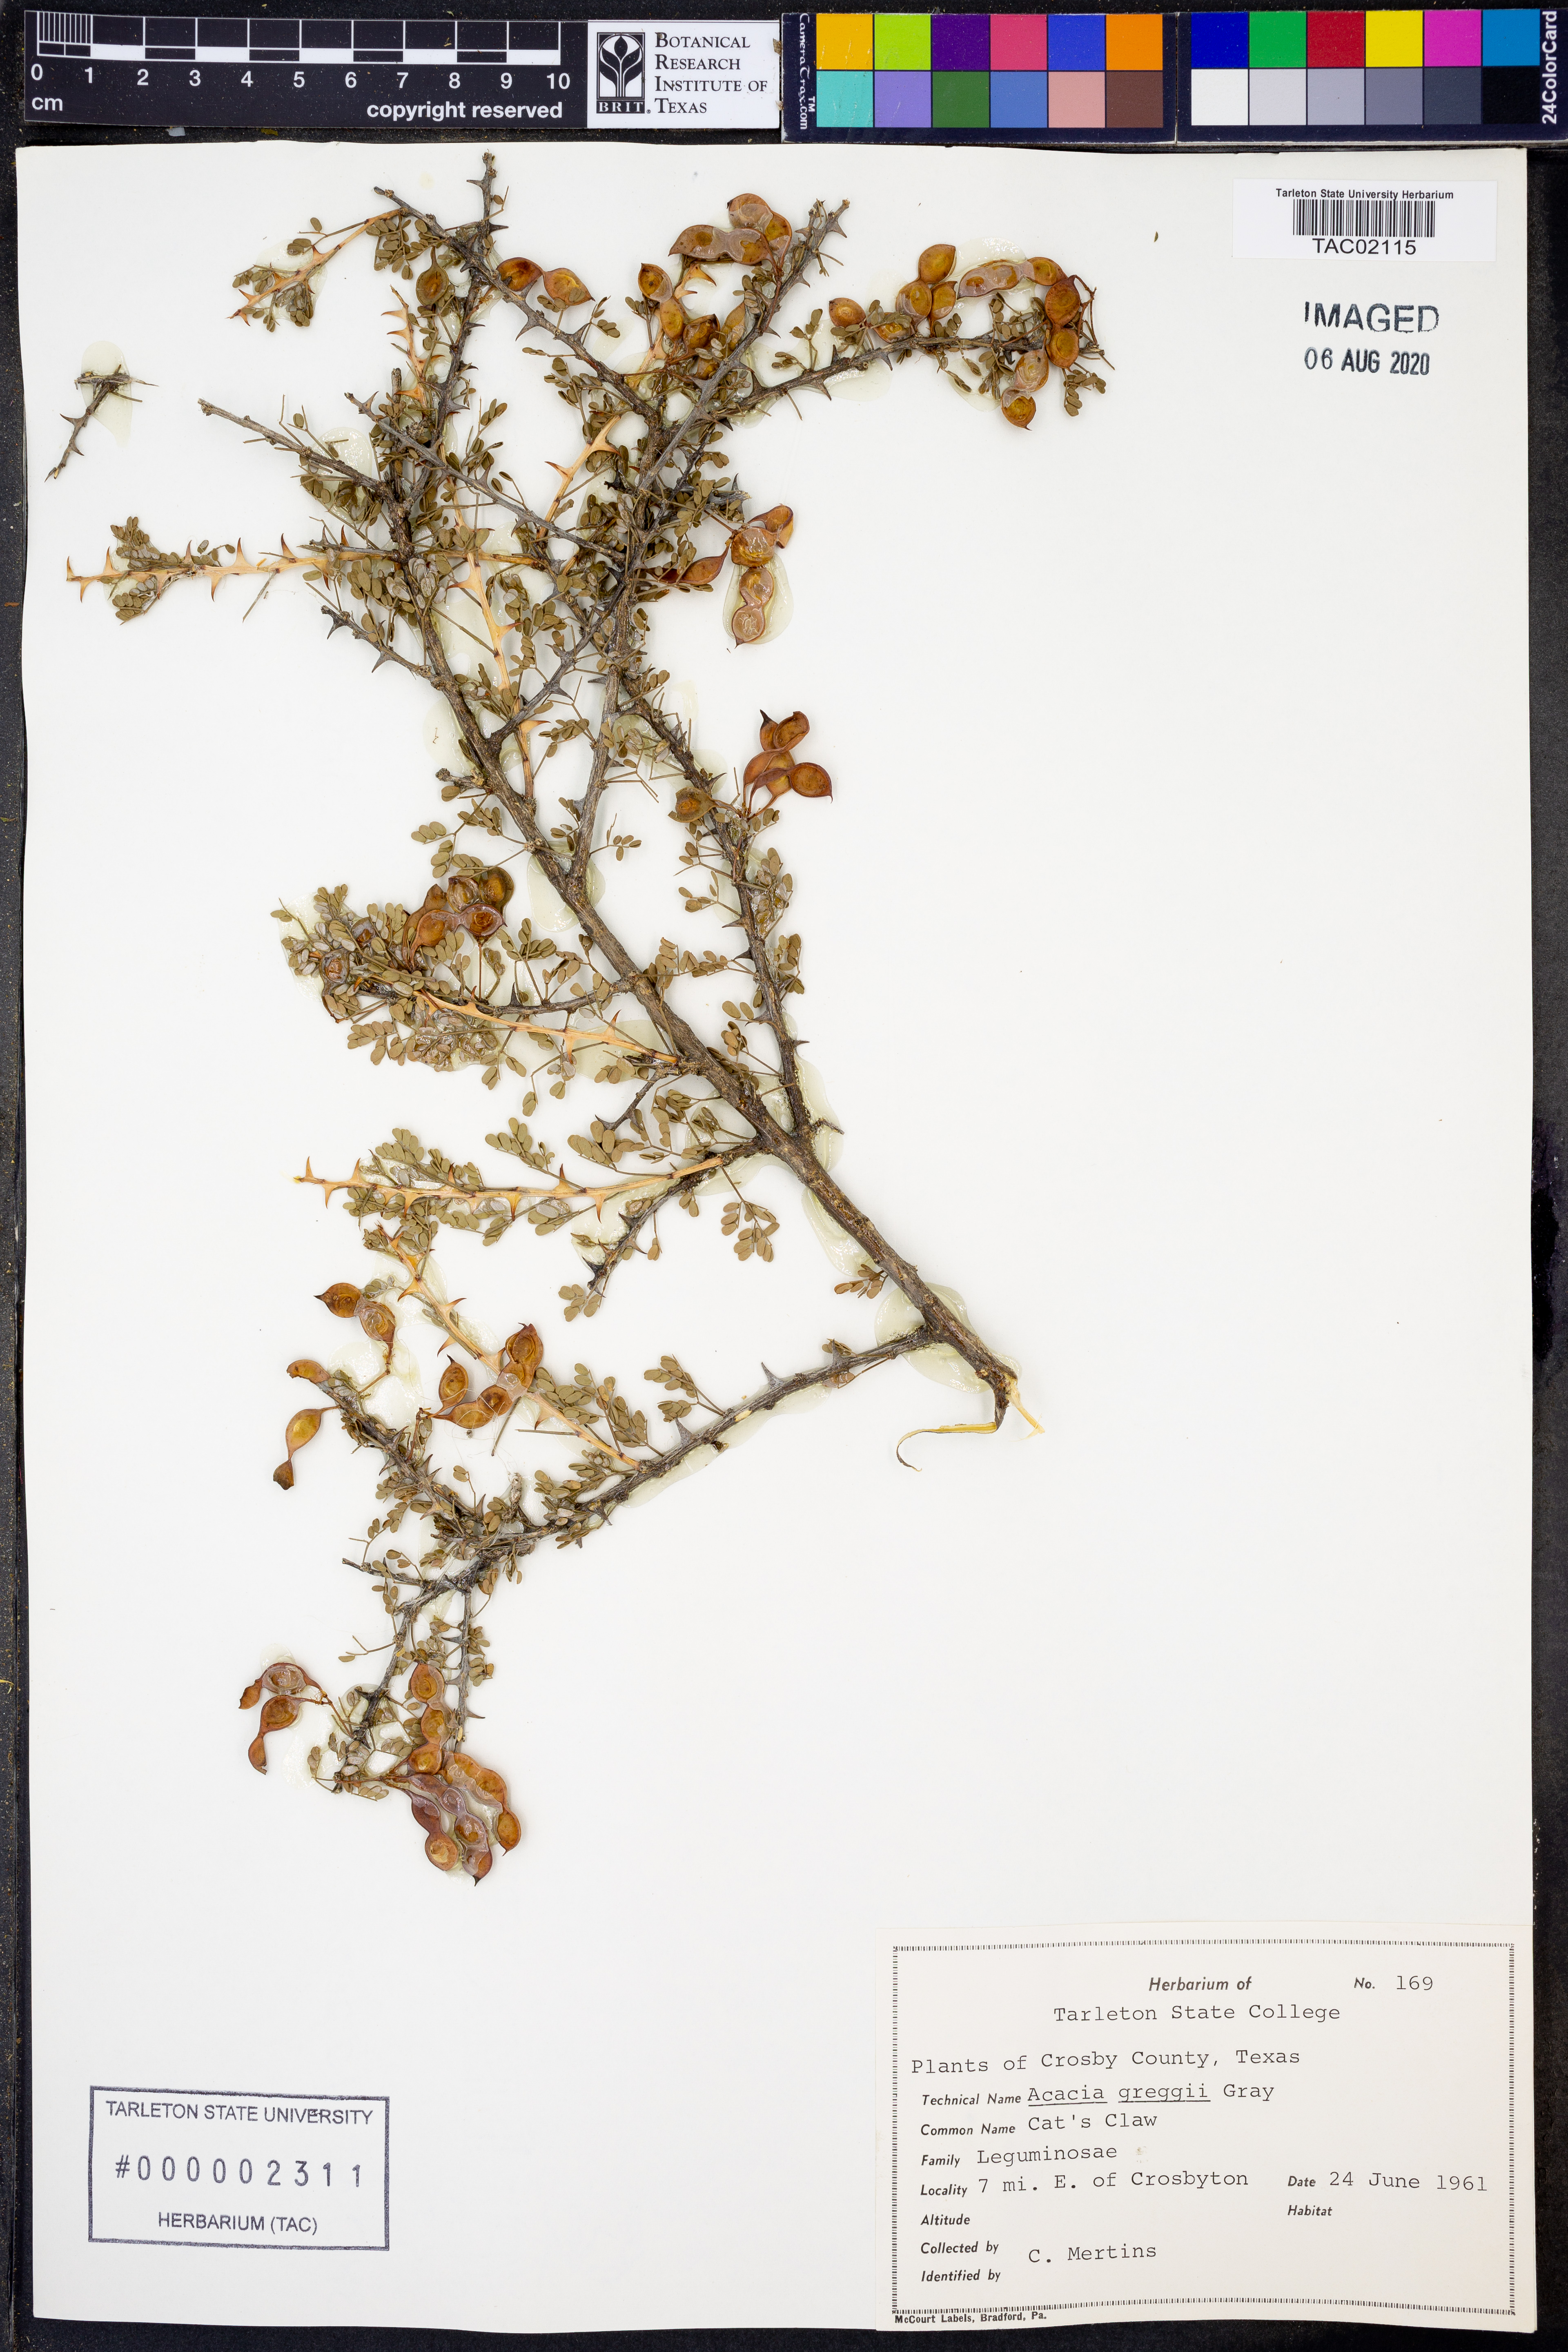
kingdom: Plantae
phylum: Tracheophyta
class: Magnoliopsida
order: Fabales
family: Fabaceae
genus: Senegalia
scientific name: Senegalia greggii
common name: Texas-mimosa
